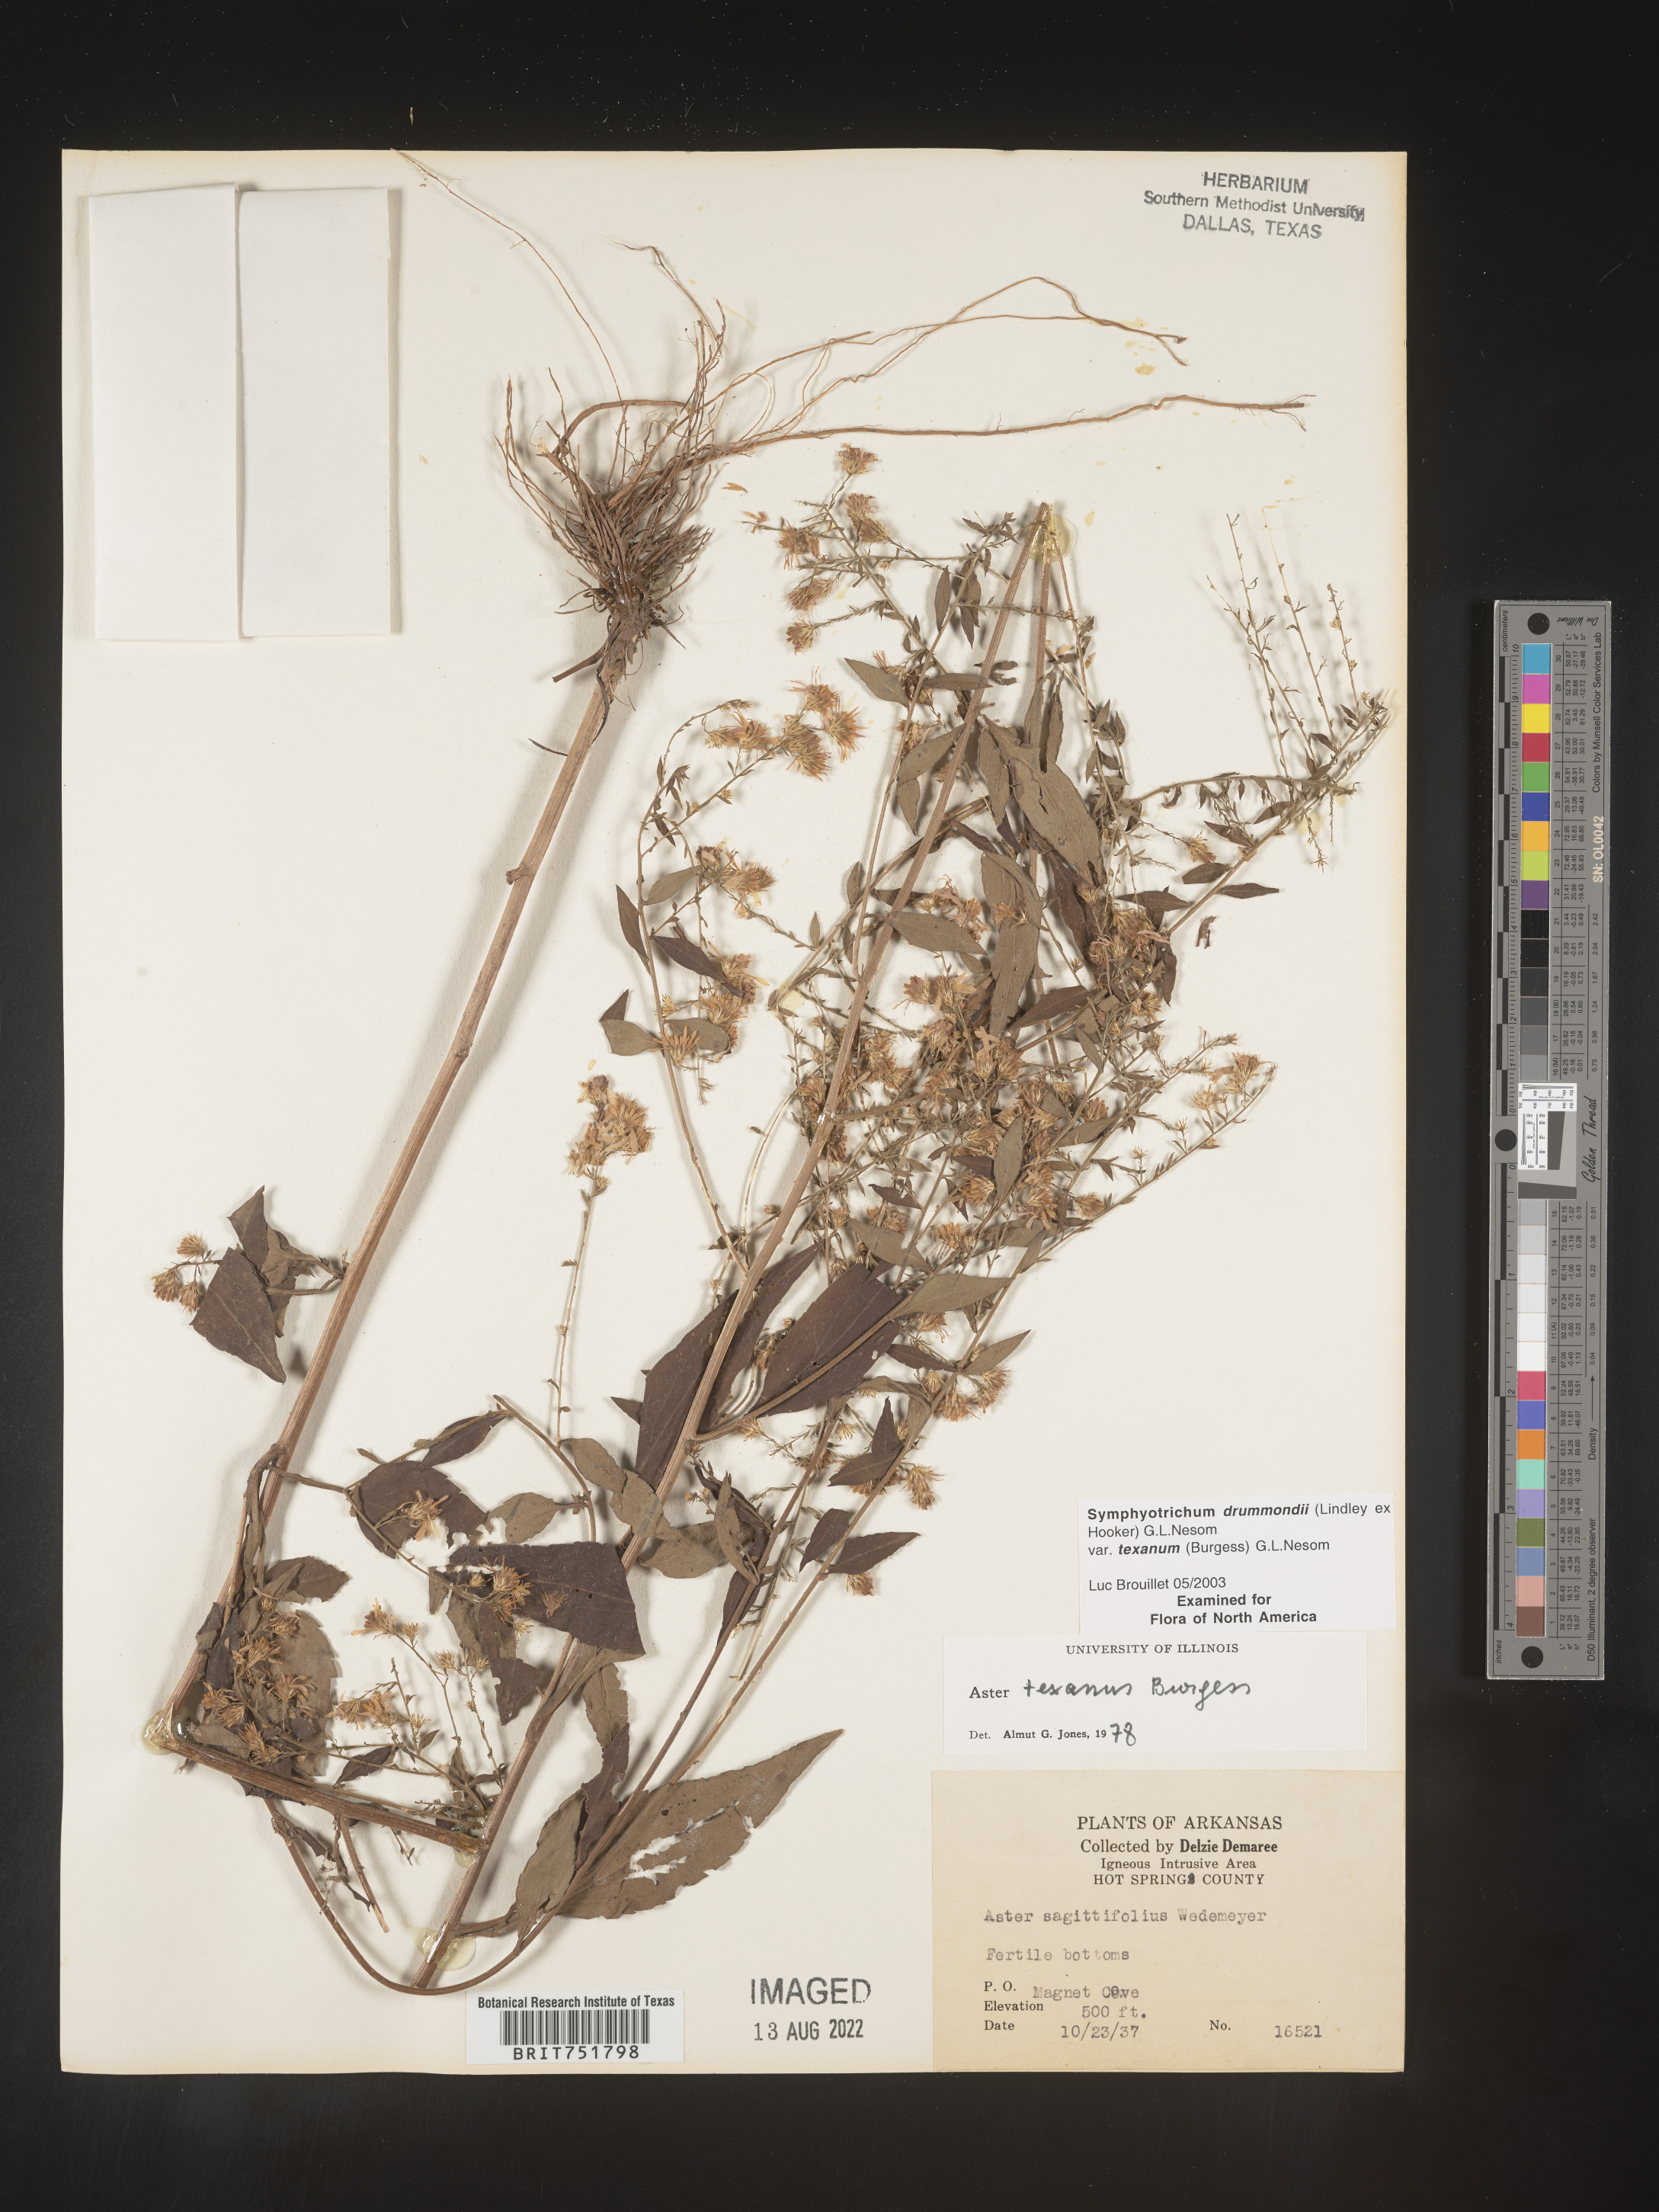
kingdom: Plantae
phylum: Tracheophyta
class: Magnoliopsida
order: Asterales
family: Asteraceae
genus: Symphyotrichum
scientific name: Symphyotrichum drummondii
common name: Drummond's aster
